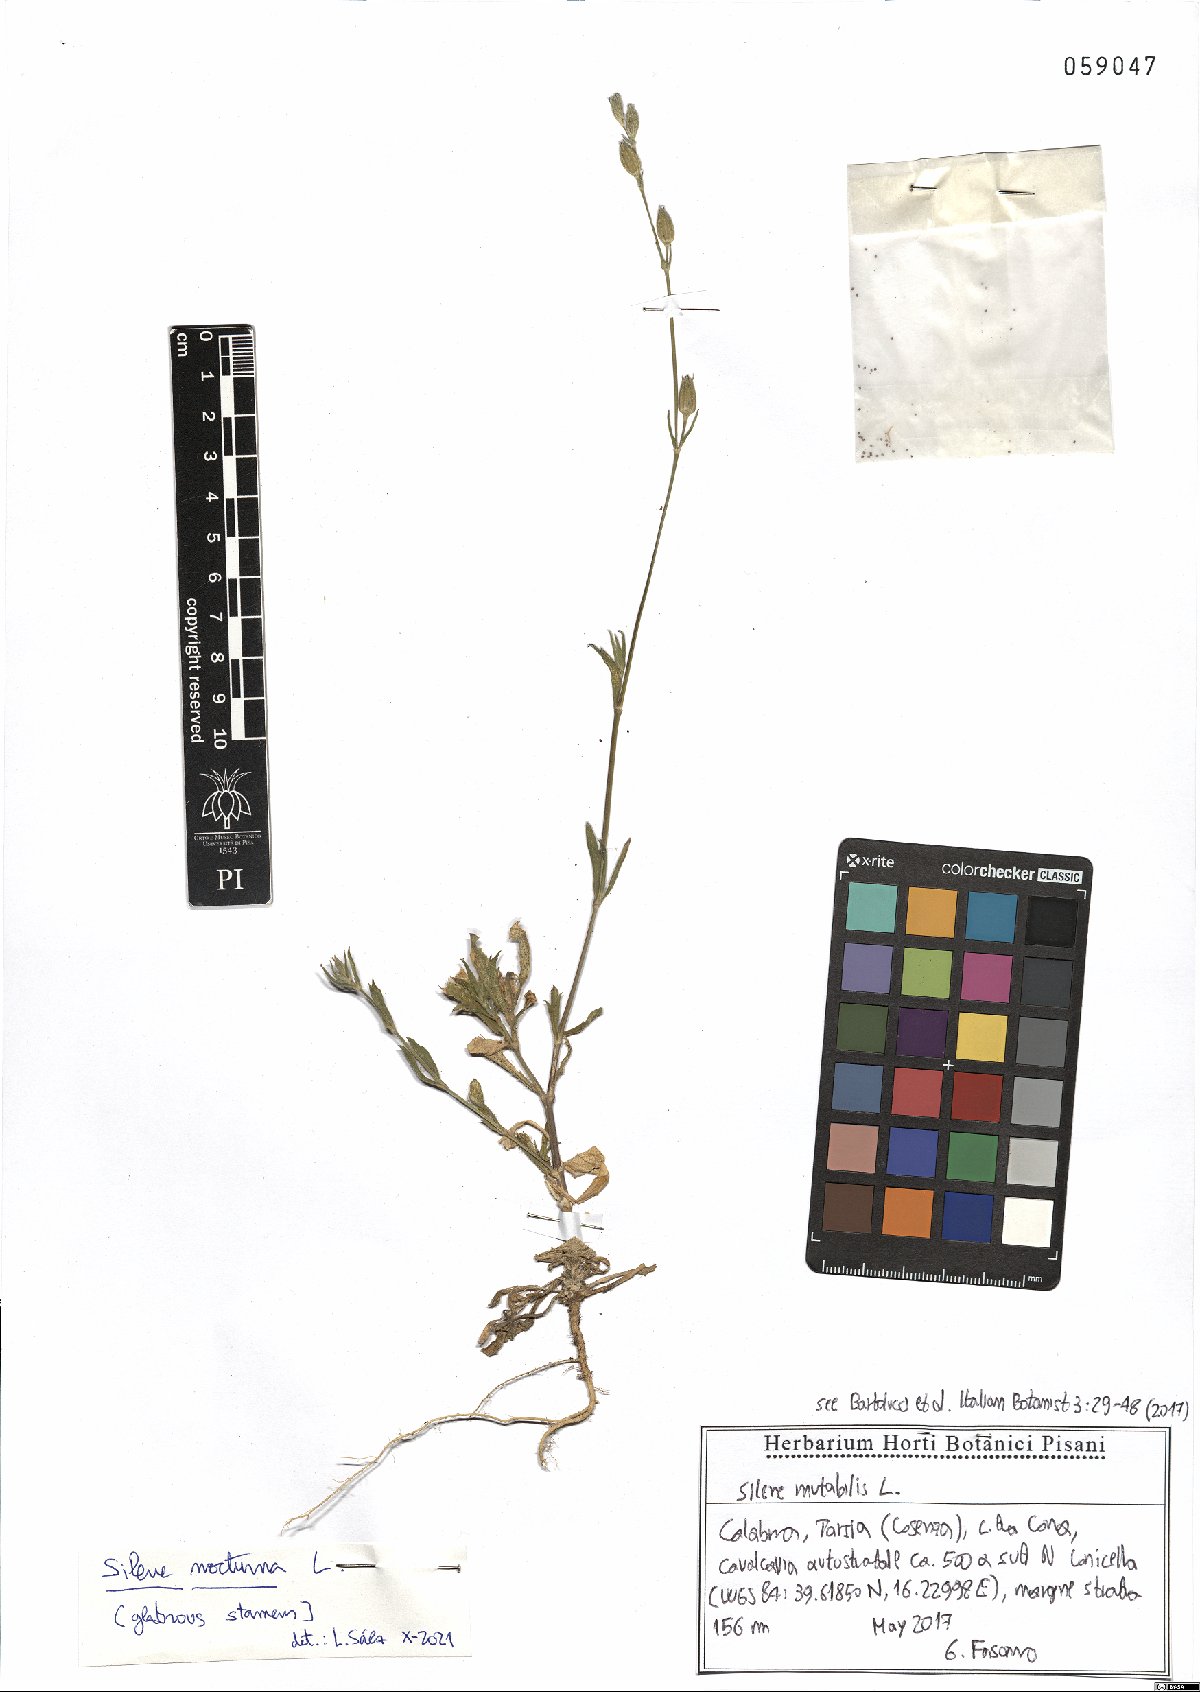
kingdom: Plantae
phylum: Tracheophyta
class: Magnoliopsida
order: Caryophyllales
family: Caryophyllaceae
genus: Silene
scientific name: Silene nocturna
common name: Mediterranean catchfly
